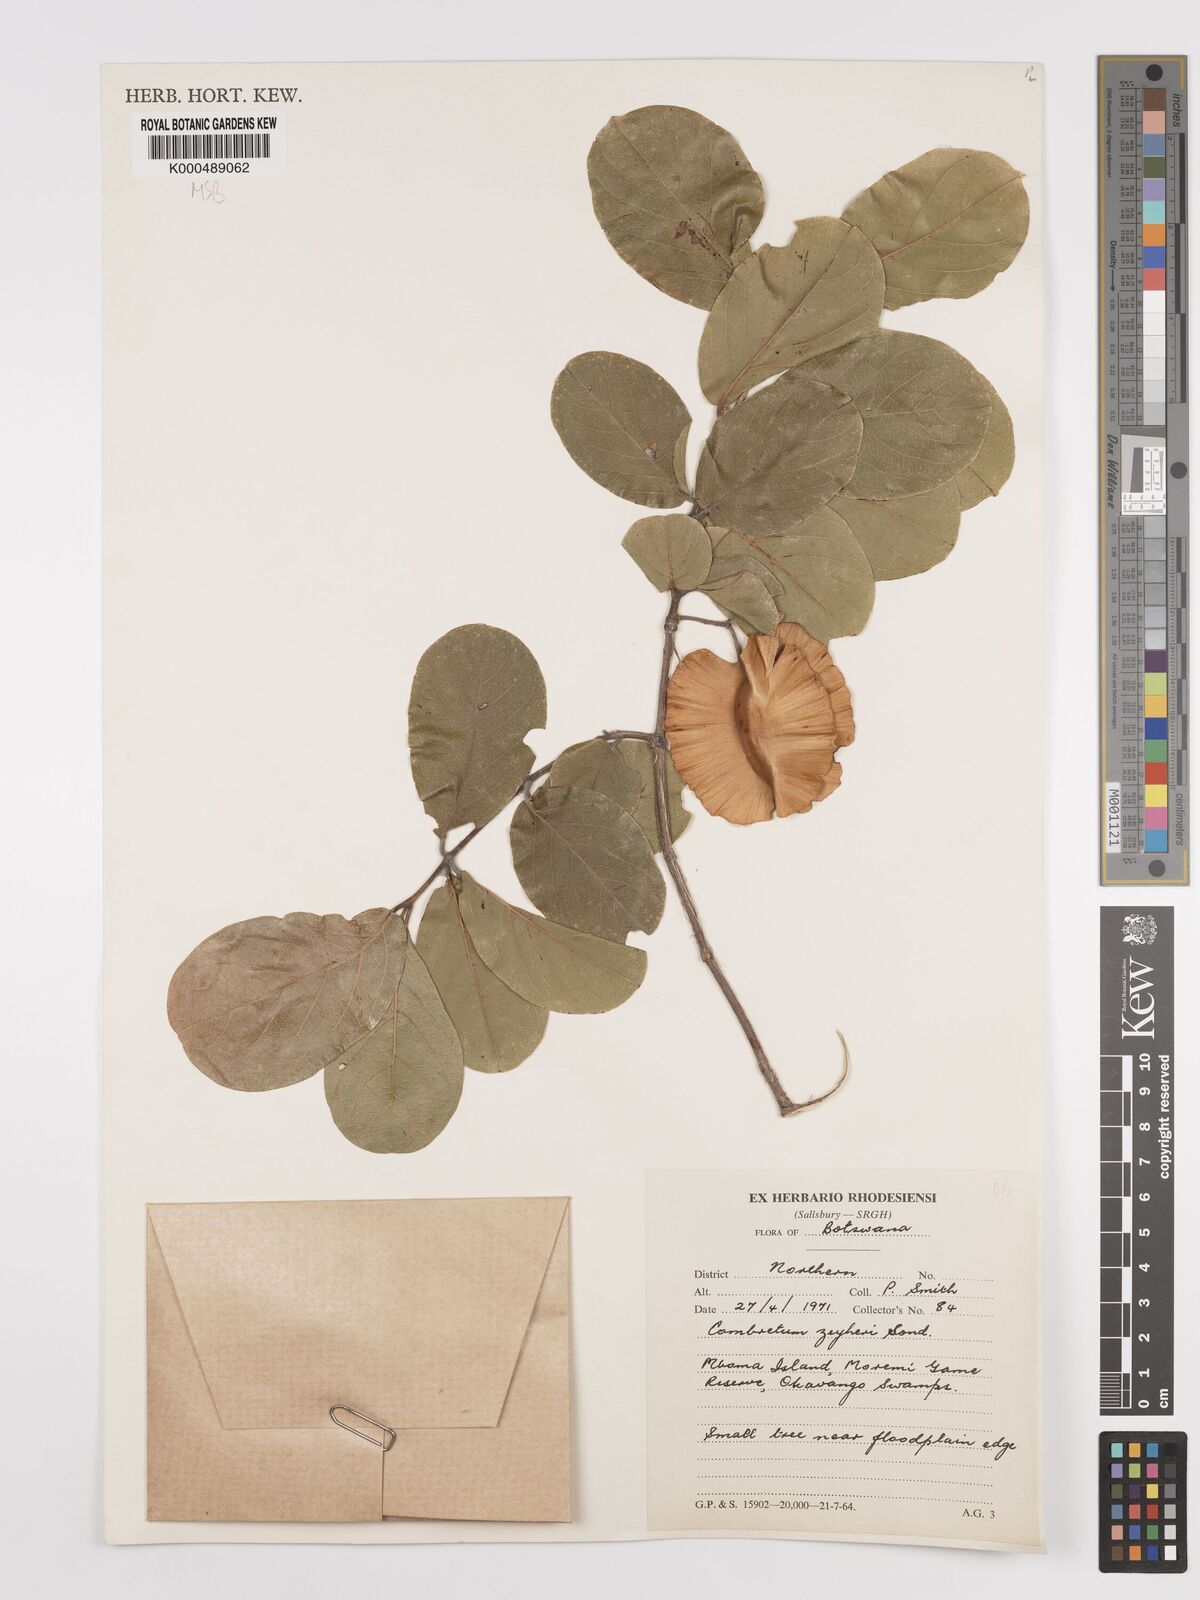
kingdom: Plantae
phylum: Tracheophyta
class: Magnoliopsida
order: Myrtales
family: Combretaceae
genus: Combretum
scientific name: Combretum zeyheri
